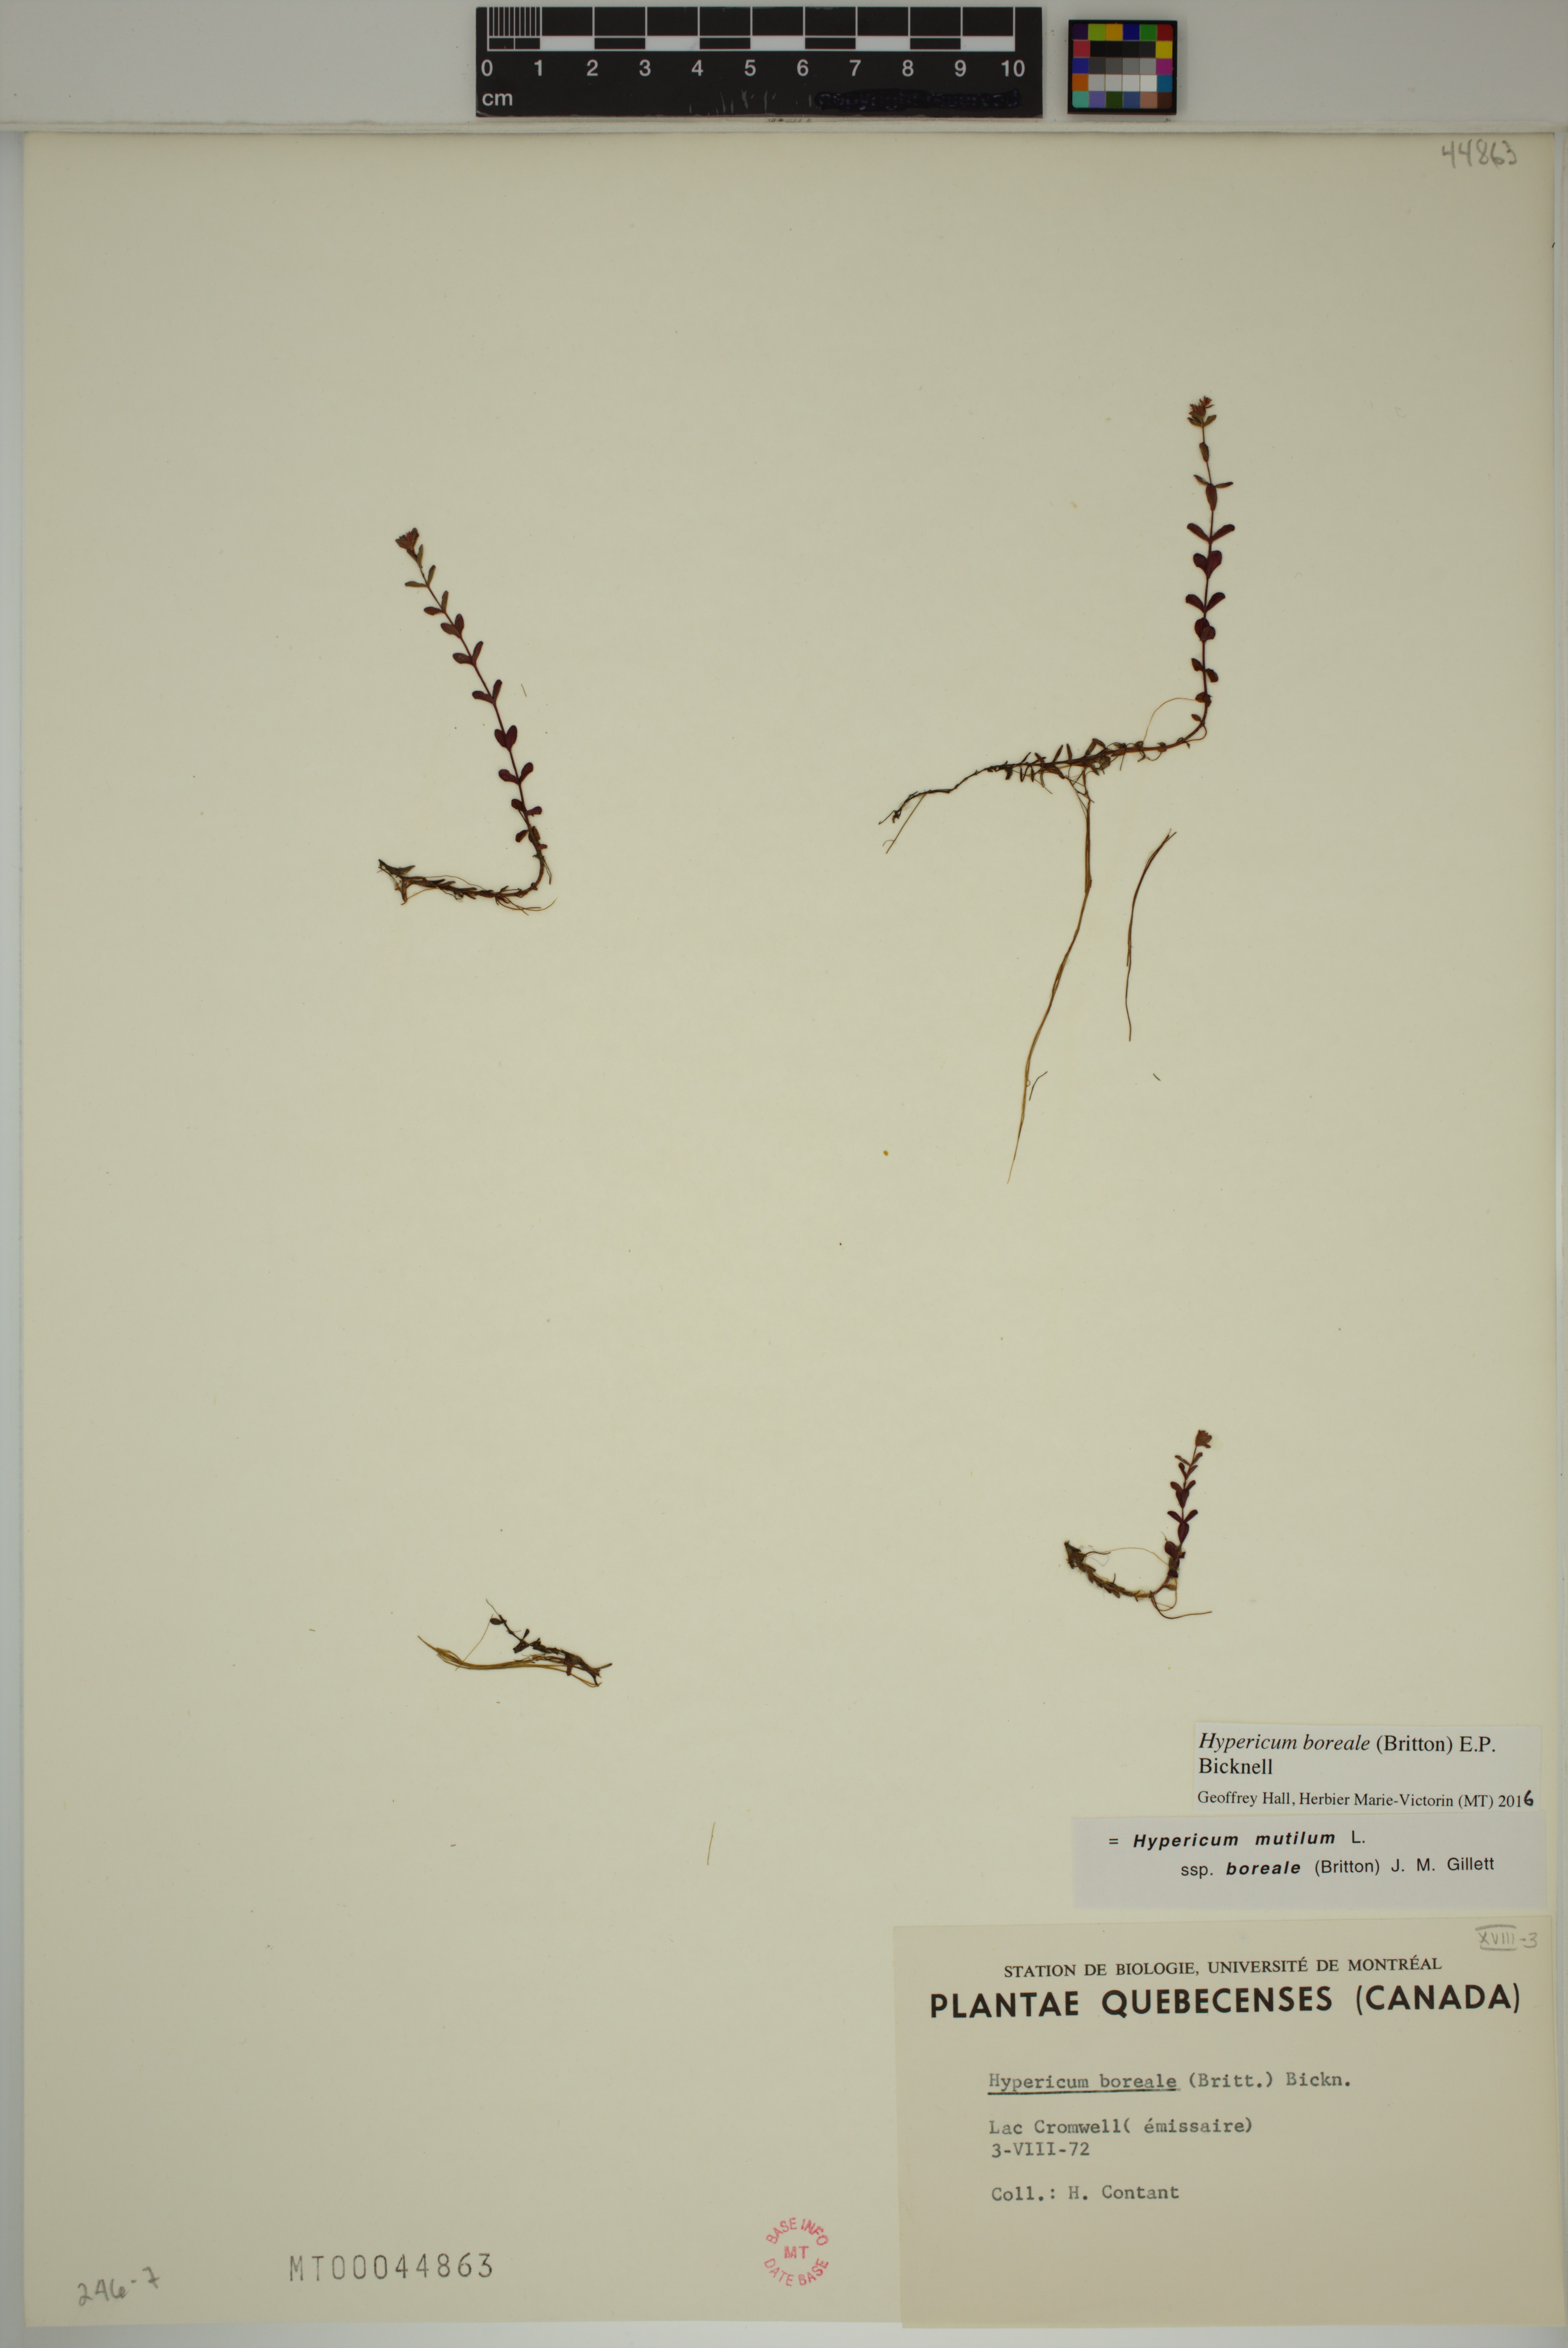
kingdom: Plantae
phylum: Tracheophyta
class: Magnoliopsida
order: Malpighiales
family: Hypericaceae
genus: Hypericum
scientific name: Hypericum boreale
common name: Northern bog st. john's-wort
